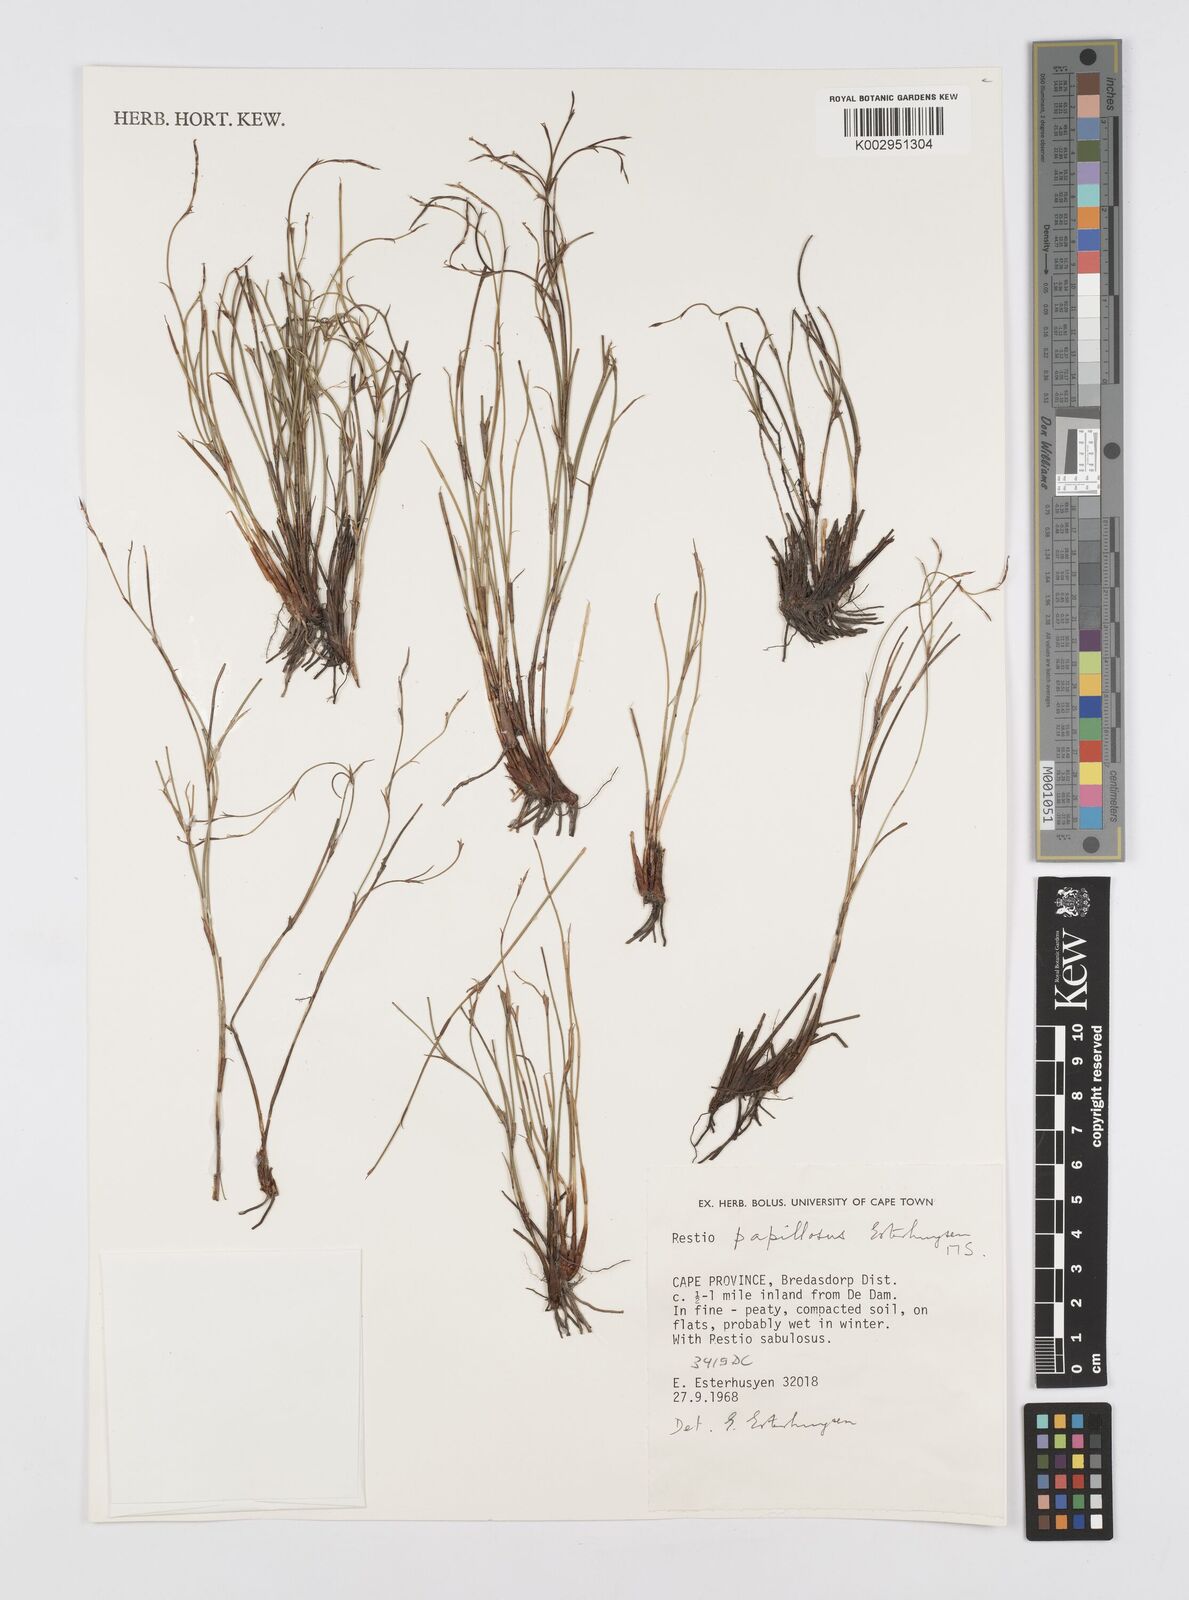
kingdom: Plantae
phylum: Tracheophyta
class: Liliopsida
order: Poales
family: Restionaceae
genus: Restio
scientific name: Restio papillosus
